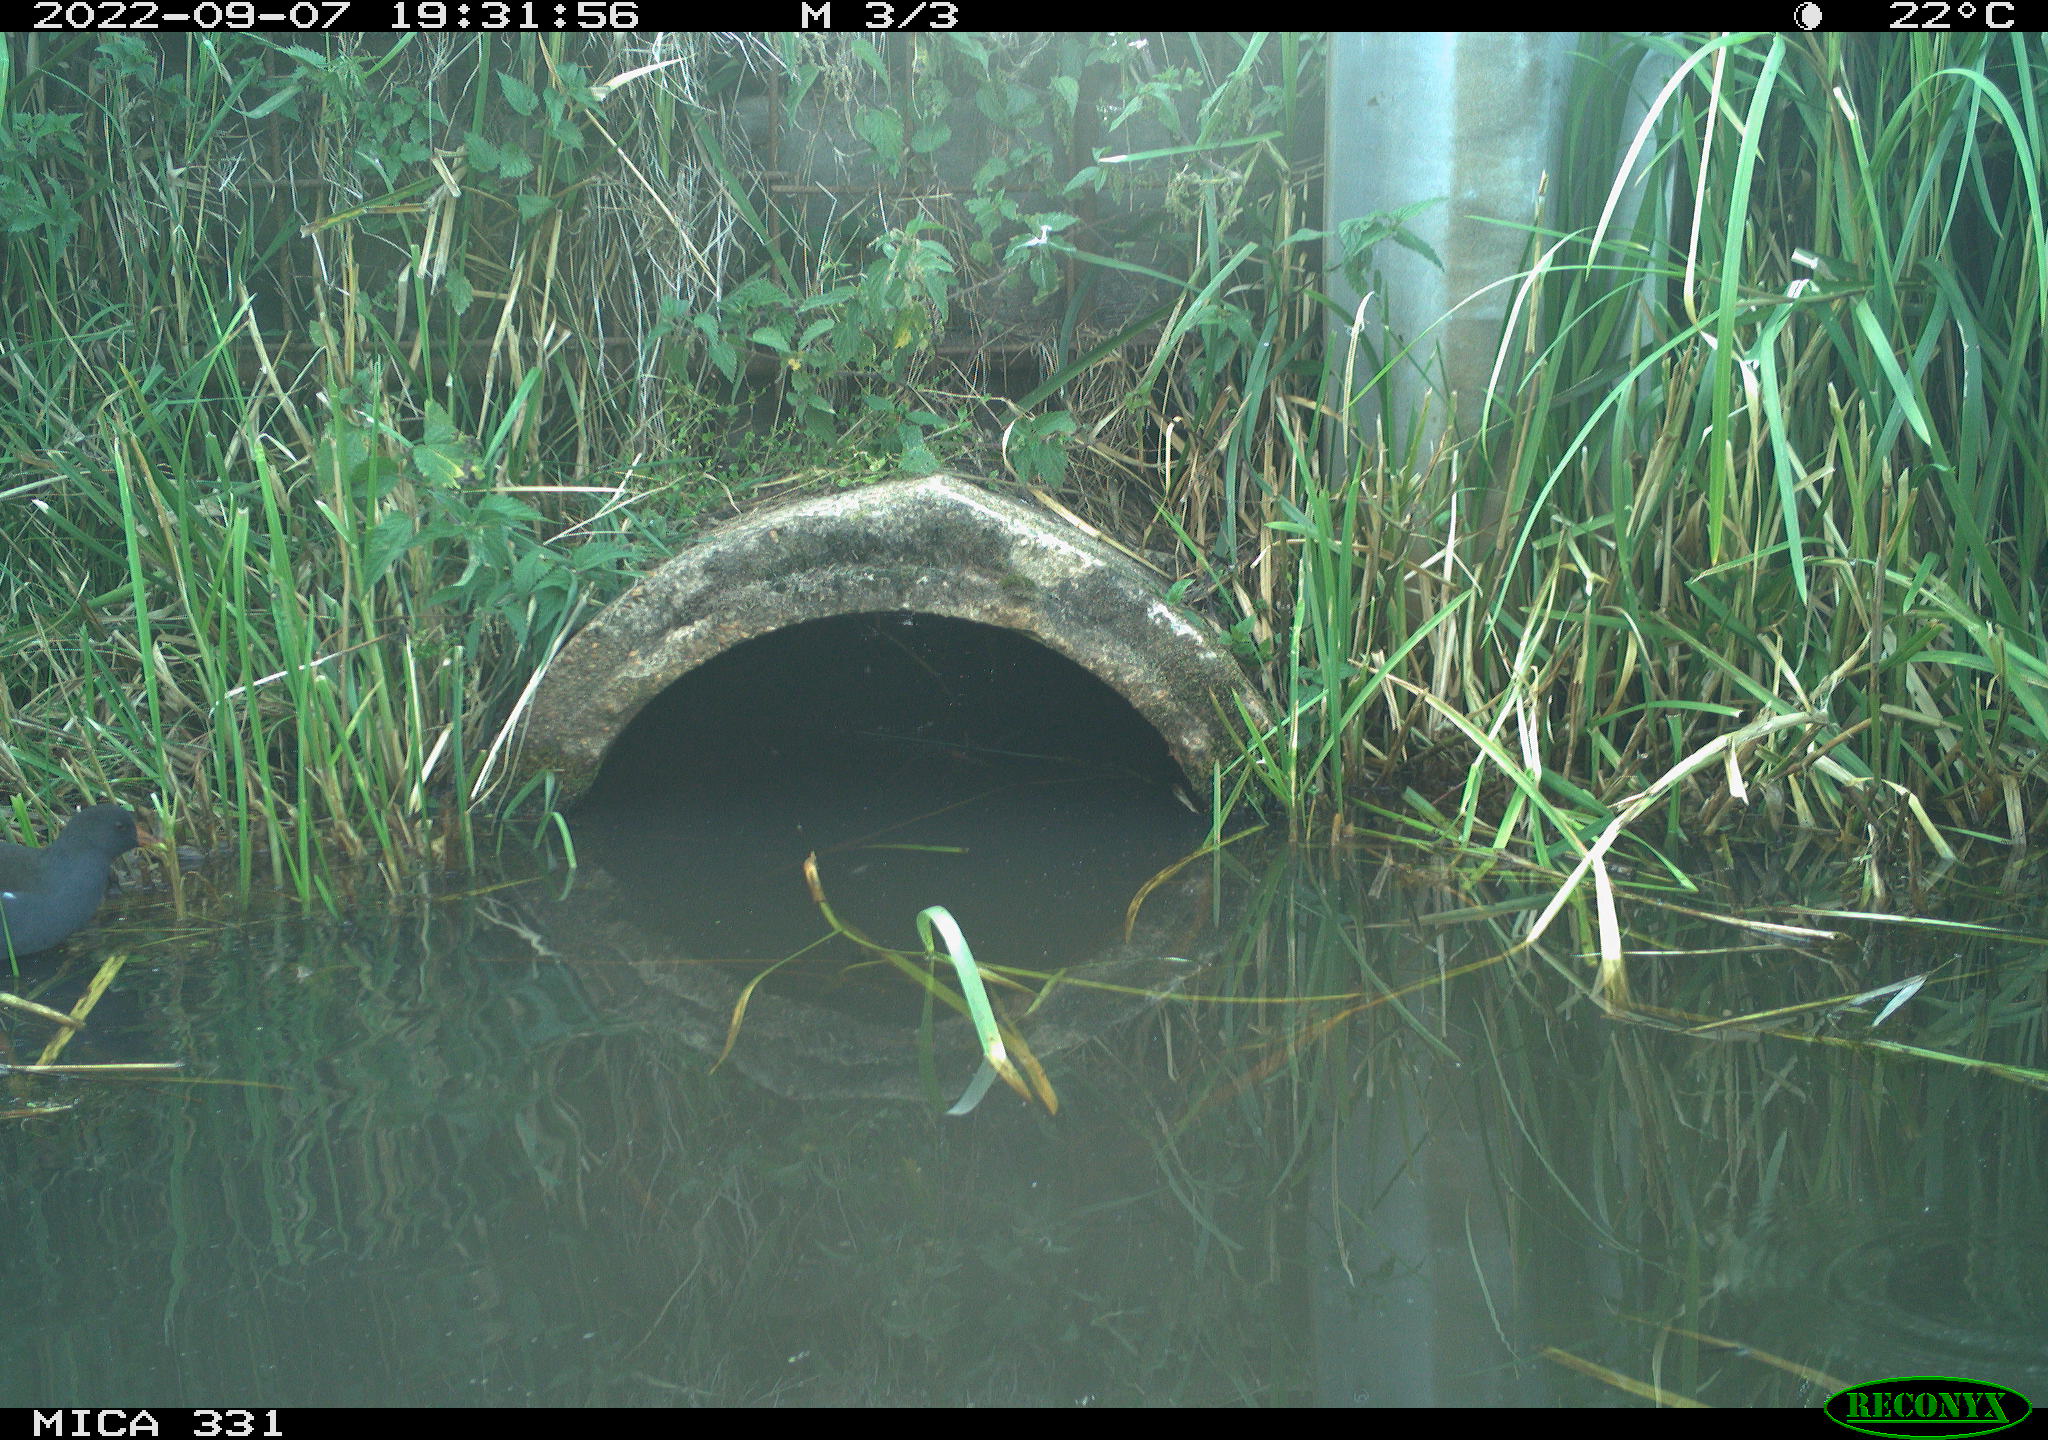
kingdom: Animalia
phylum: Chordata
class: Aves
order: Gruiformes
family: Rallidae
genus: Gallinula
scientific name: Gallinula chloropus
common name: Common moorhen
